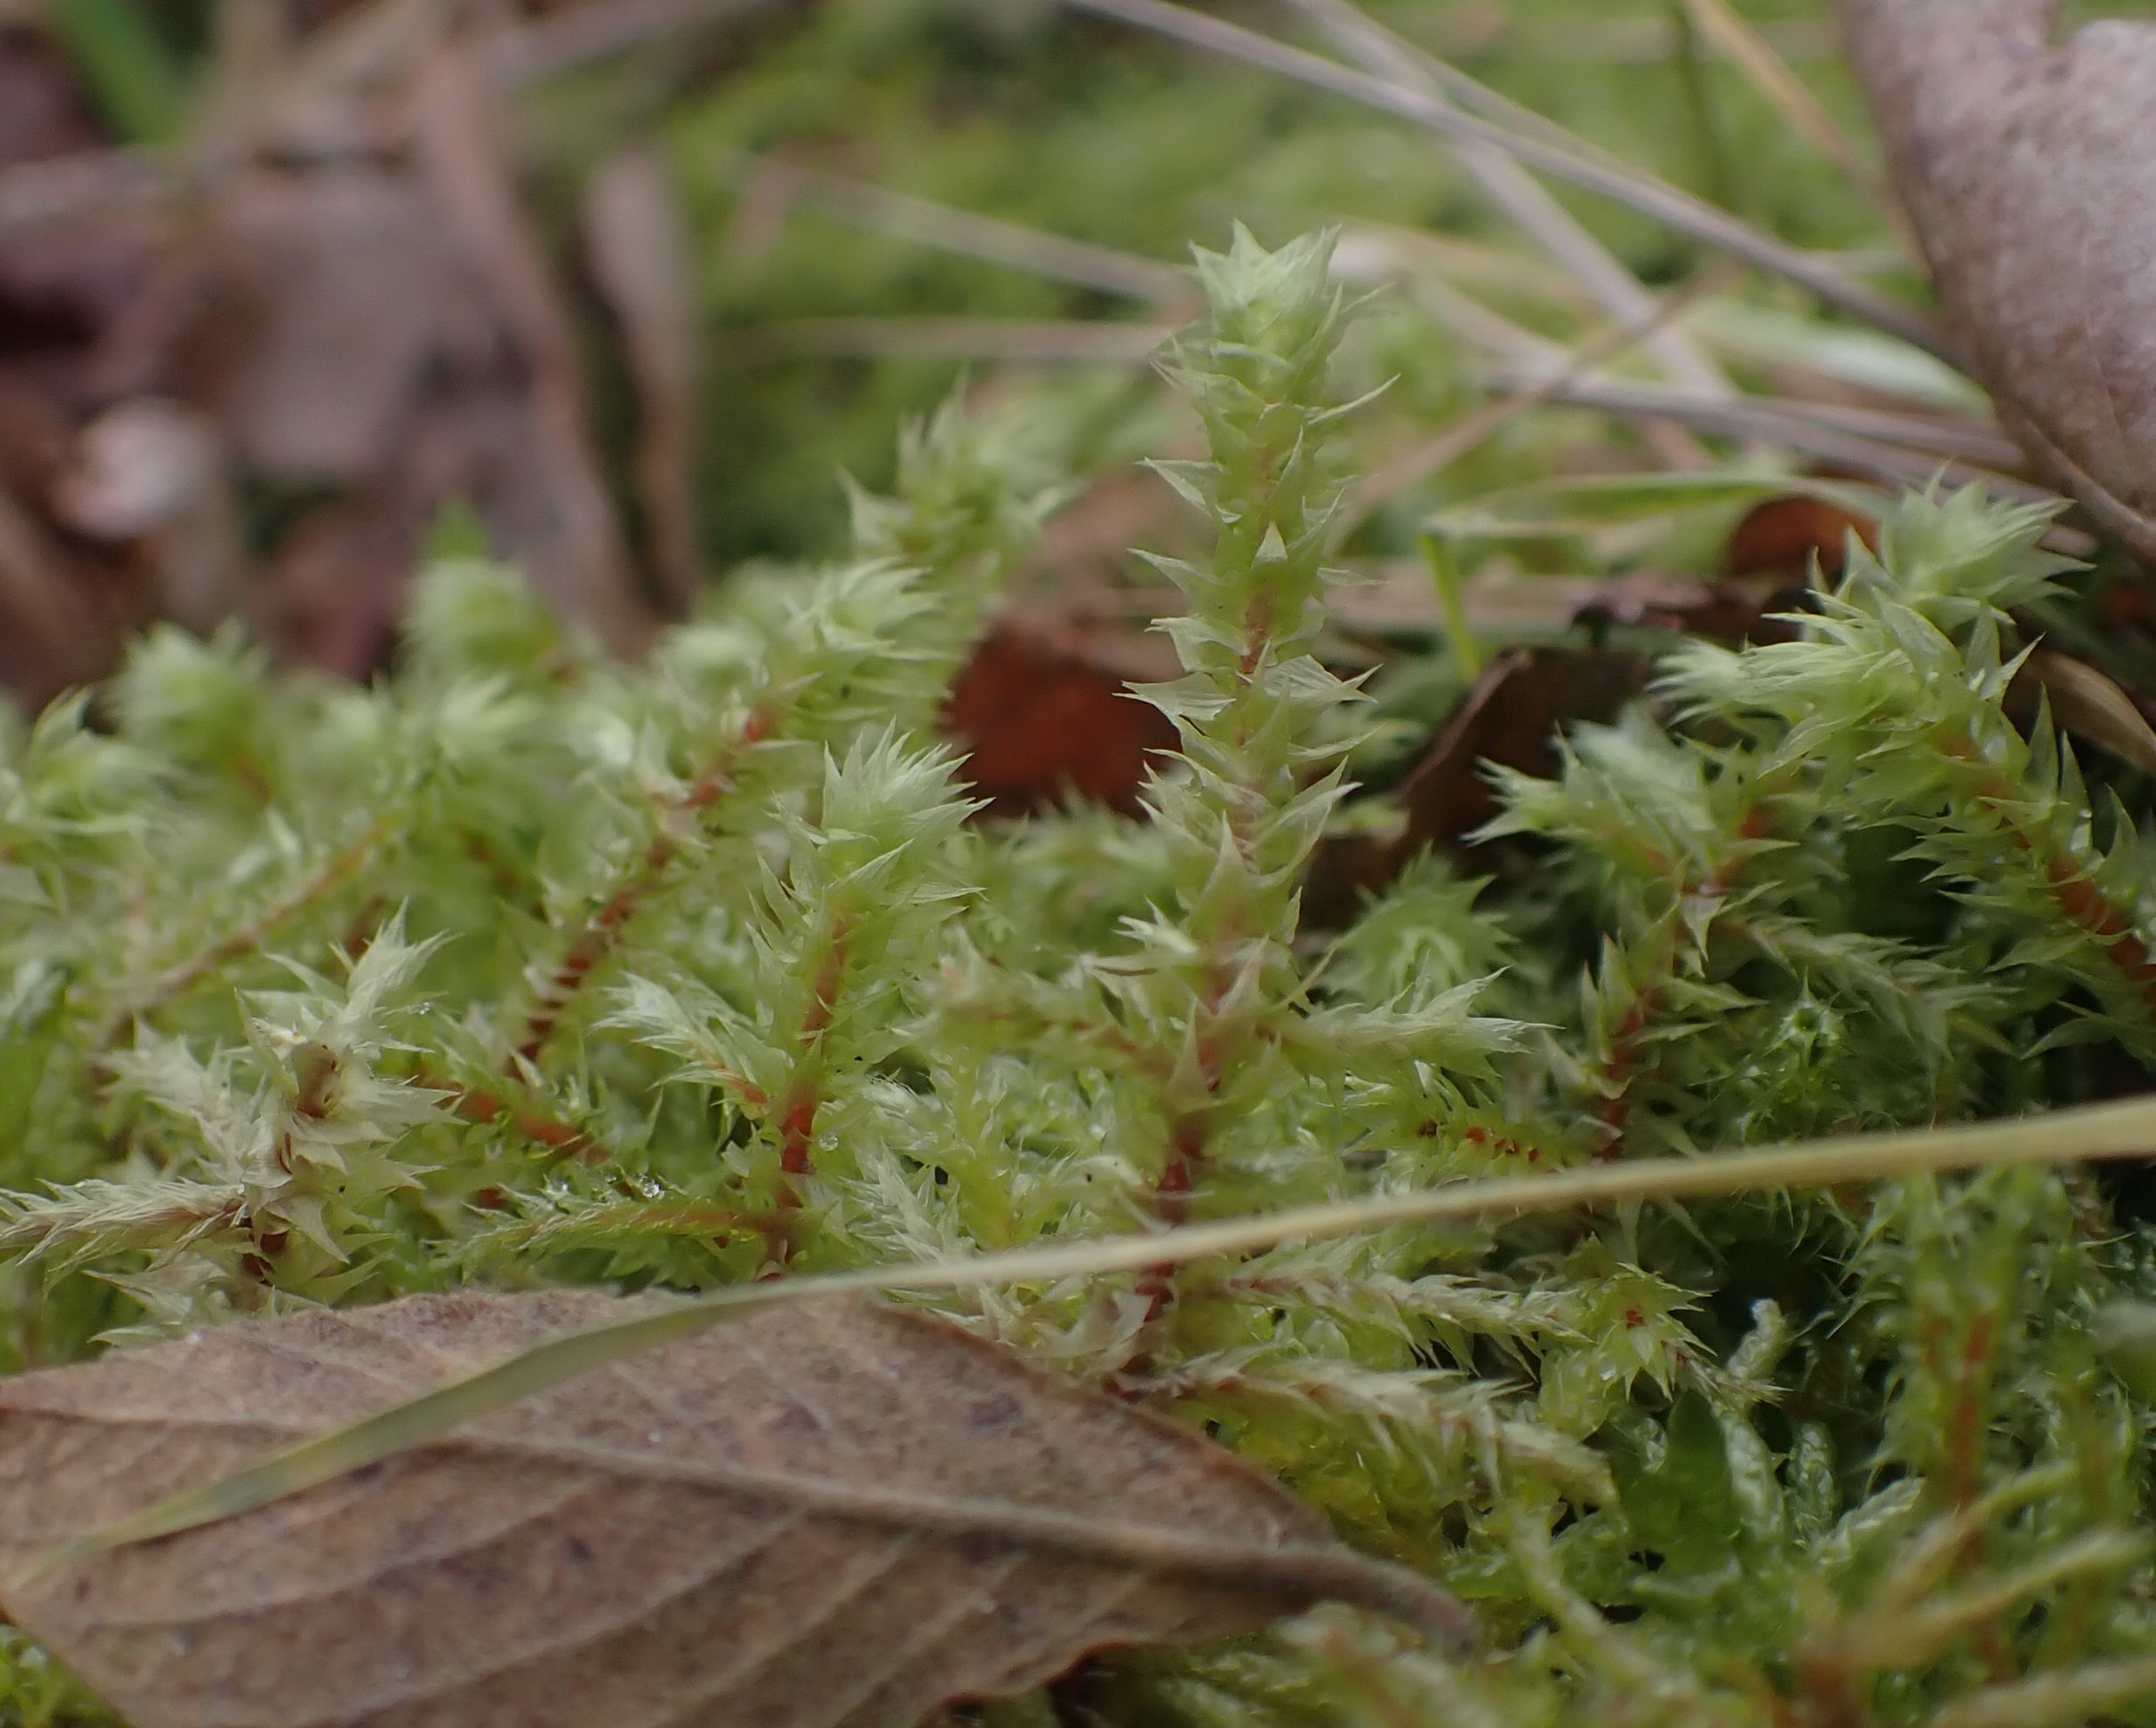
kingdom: Plantae
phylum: Bryophyta
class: Bryopsida
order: Hypnales
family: Hylocomiaceae
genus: Hylocomiadelphus
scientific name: Hylocomiadelphus triquetrus
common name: Stor kransemos
